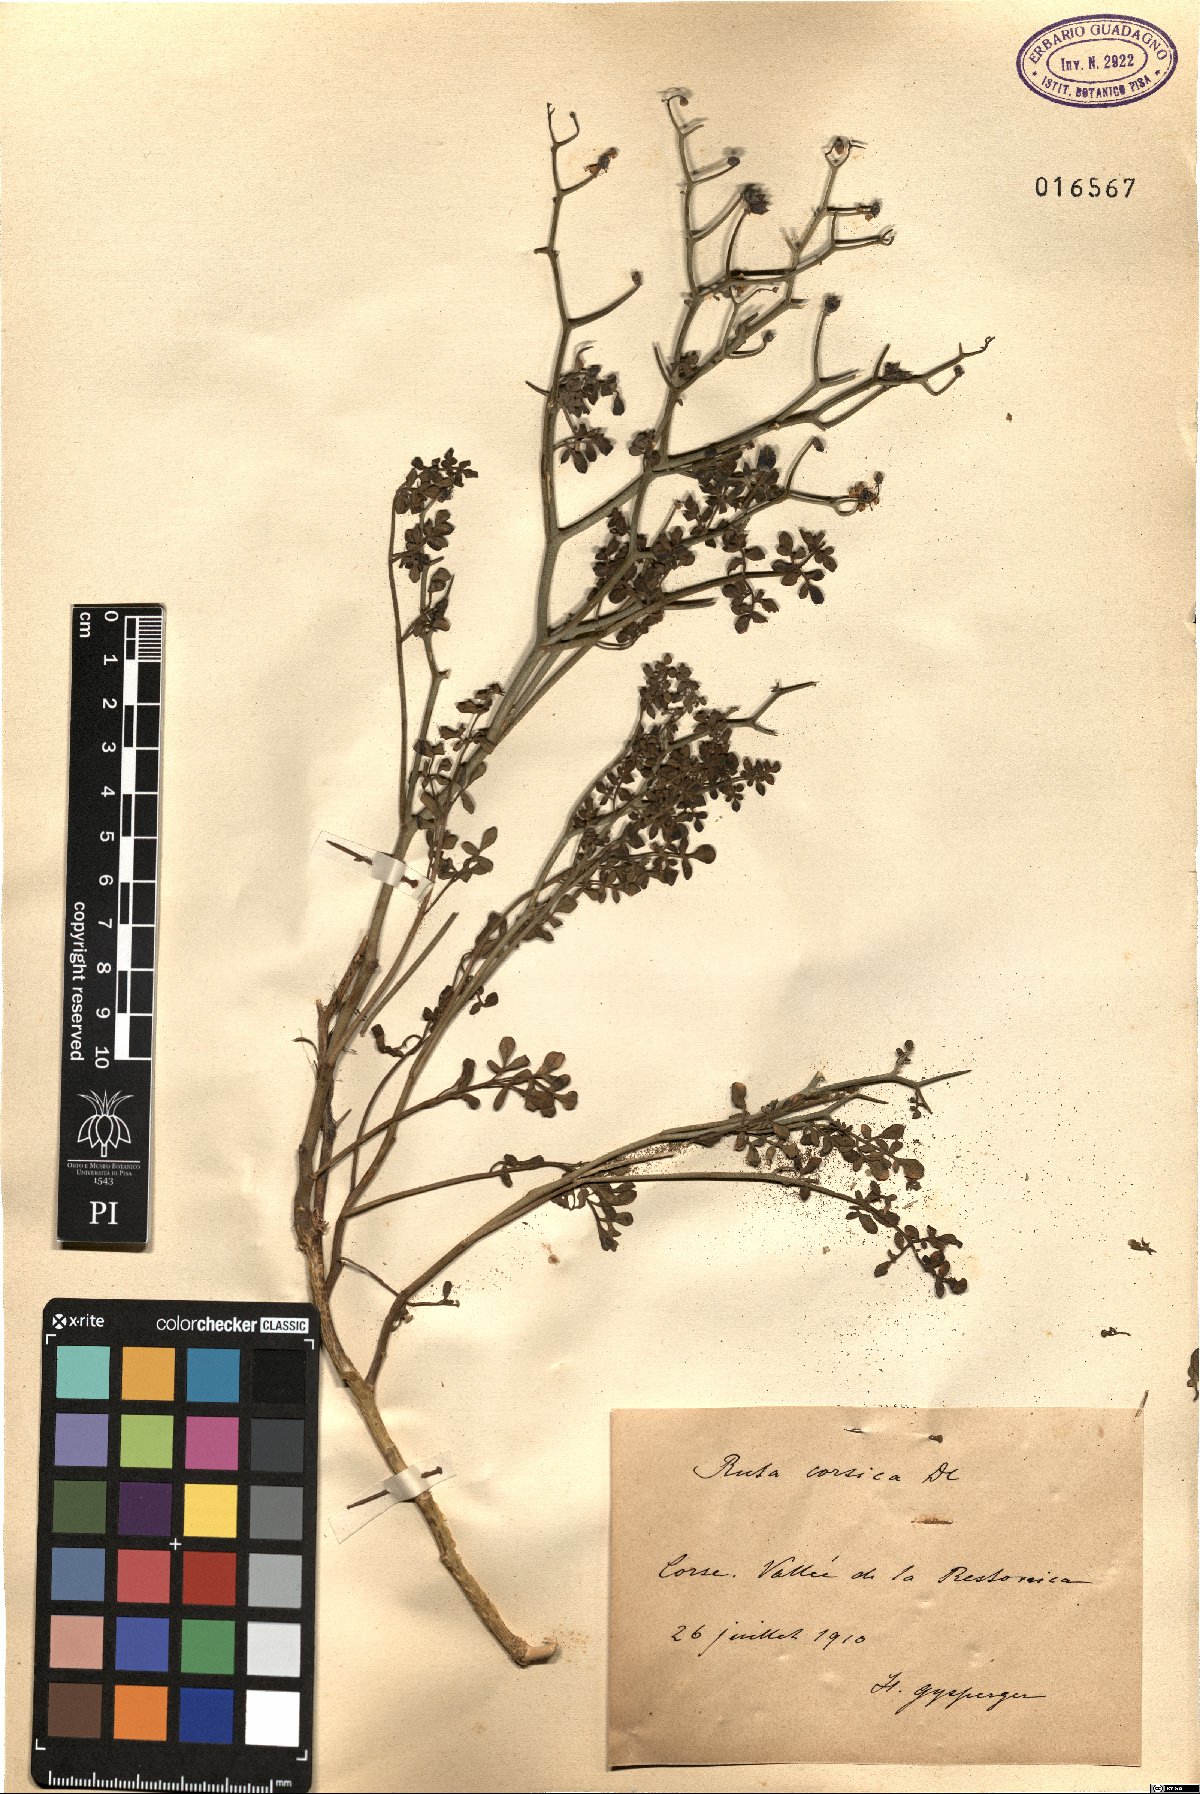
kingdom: Plantae
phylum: Tracheophyta
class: Magnoliopsida
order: Sapindales
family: Rutaceae
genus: Ruta
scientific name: Ruta corsica
